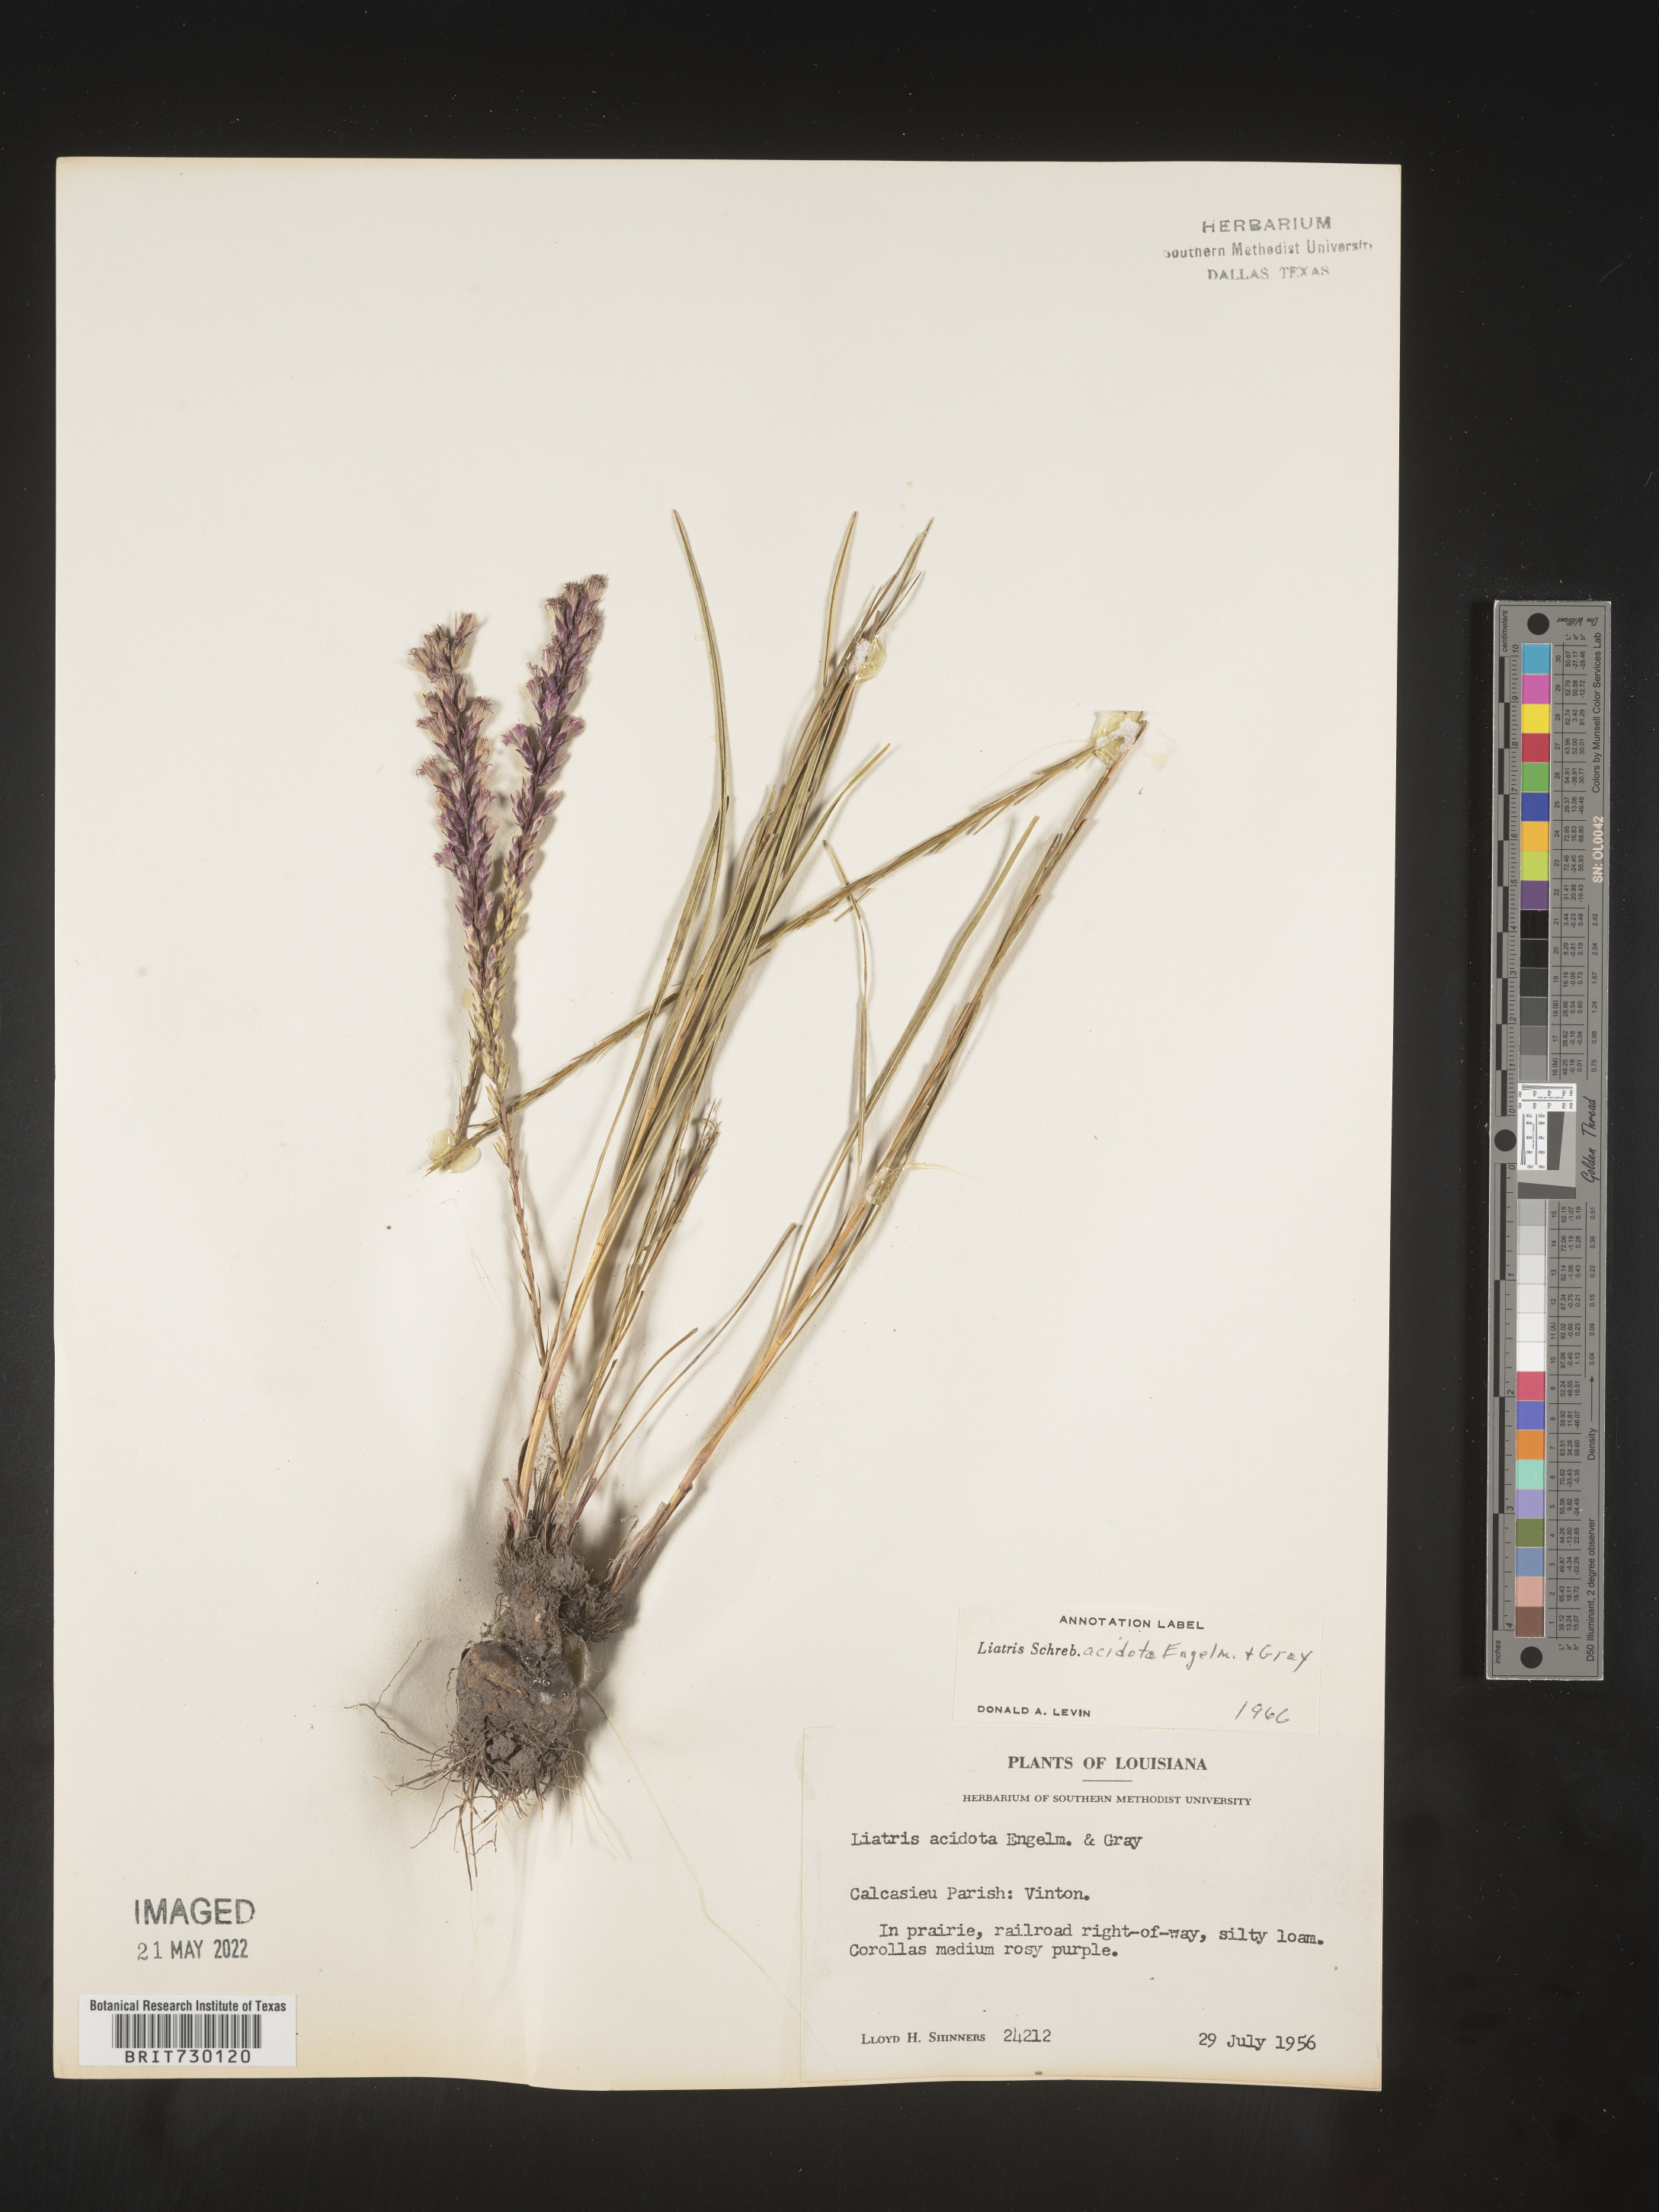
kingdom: Plantae
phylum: Tracheophyta
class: Magnoliopsida
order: Asterales
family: Asteraceae
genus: Liatris
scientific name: Liatris acidota
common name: Gulf coast gayfeather
